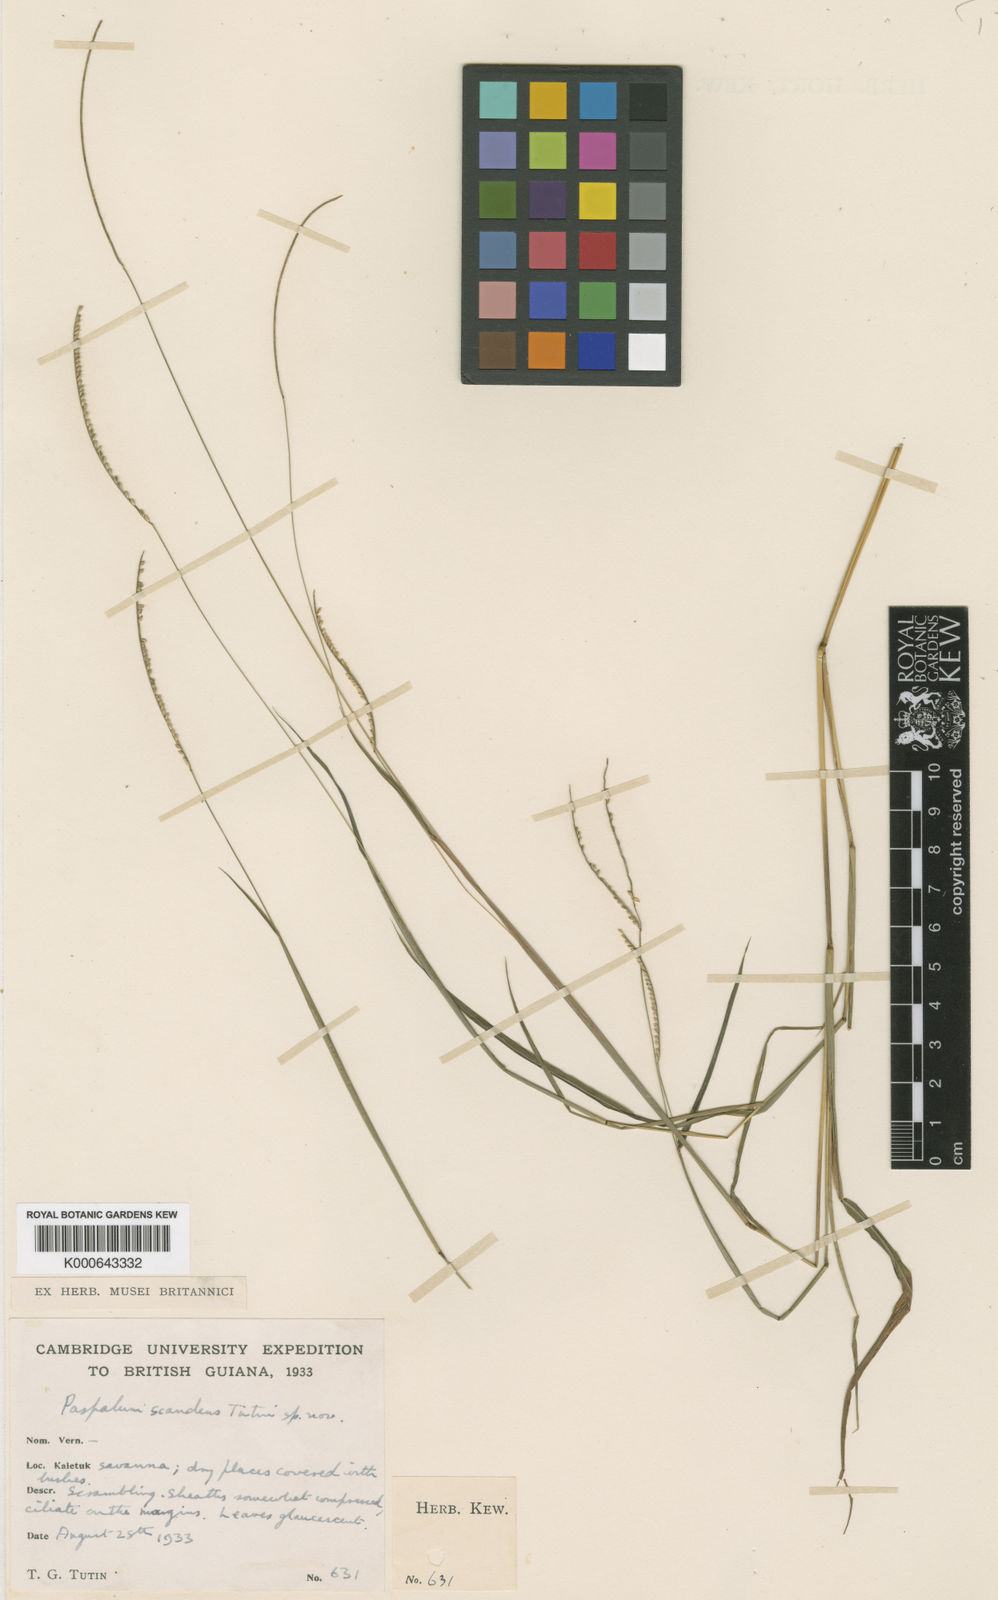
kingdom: Plantae
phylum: Tracheophyta
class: Liliopsida
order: Poales
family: Poaceae
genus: Paspalum
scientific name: Paspalum scandens
